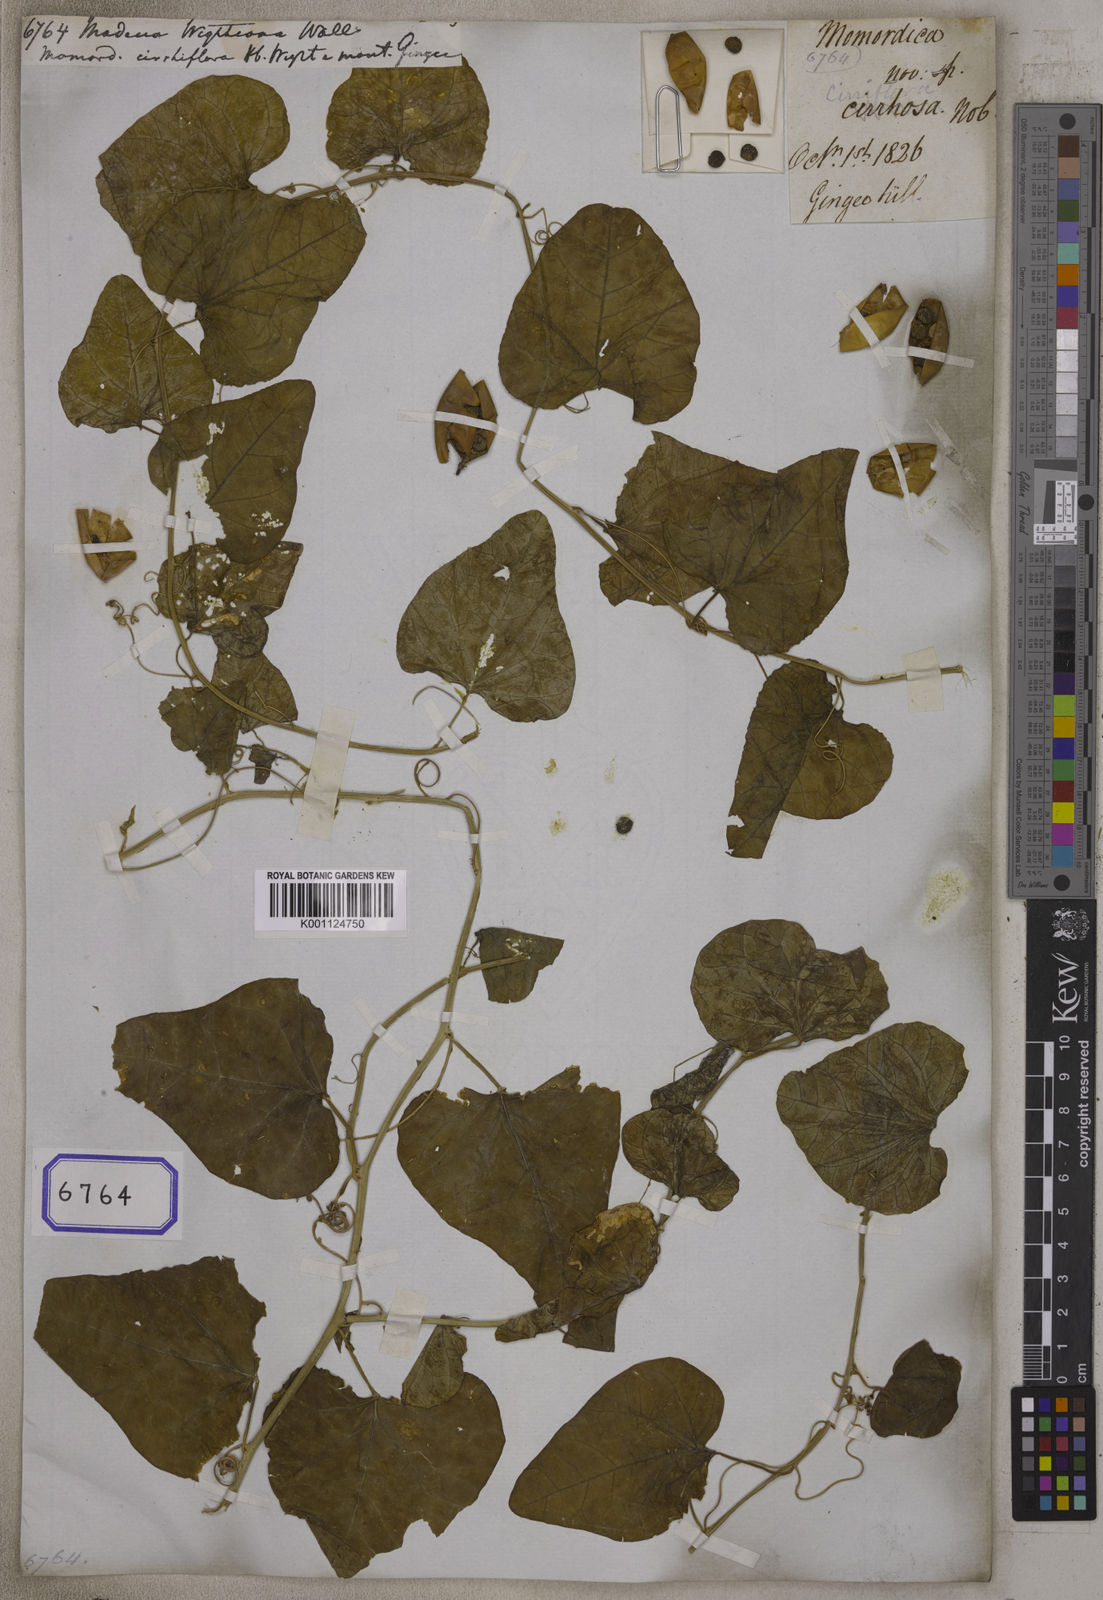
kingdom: Plantae
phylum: Tracheophyta
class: Magnoliopsida
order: Malpighiales
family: Passifloraceae
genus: Adenia
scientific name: Adenia
